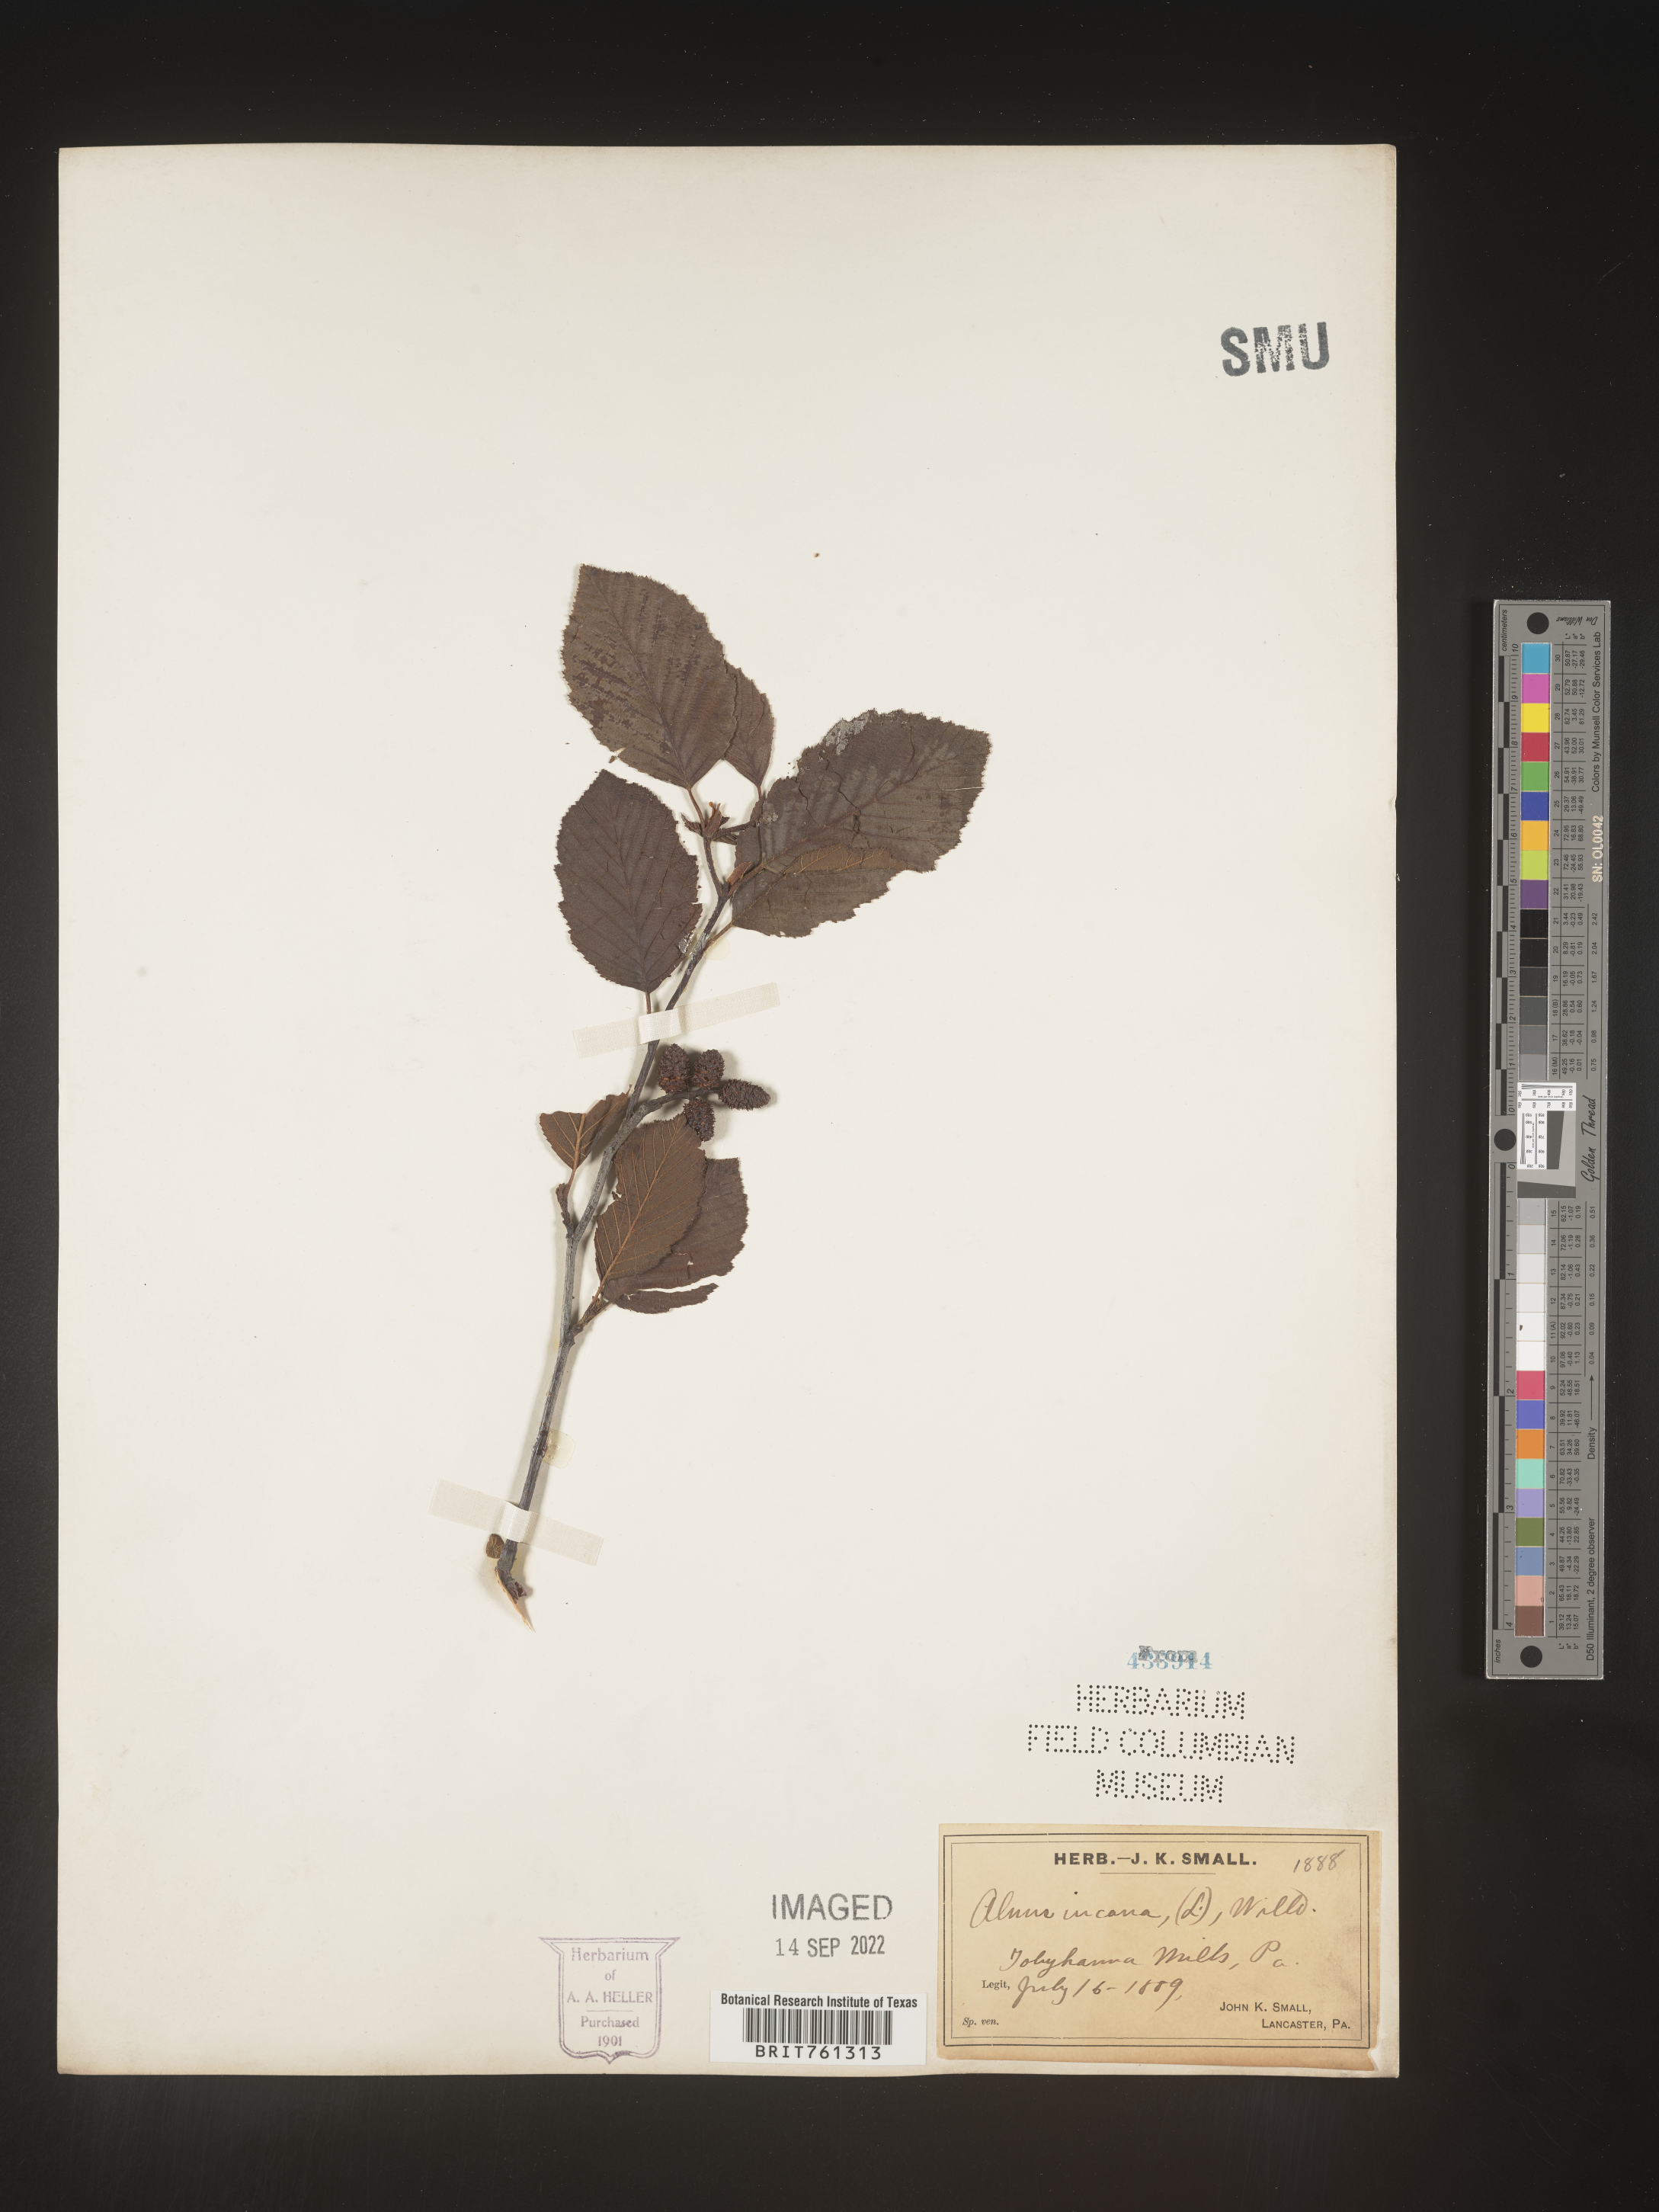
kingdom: Plantae
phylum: Tracheophyta
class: Magnoliopsida
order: Fagales
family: Betulaceae
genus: Alnus
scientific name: Alnus incana
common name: Grey alder
